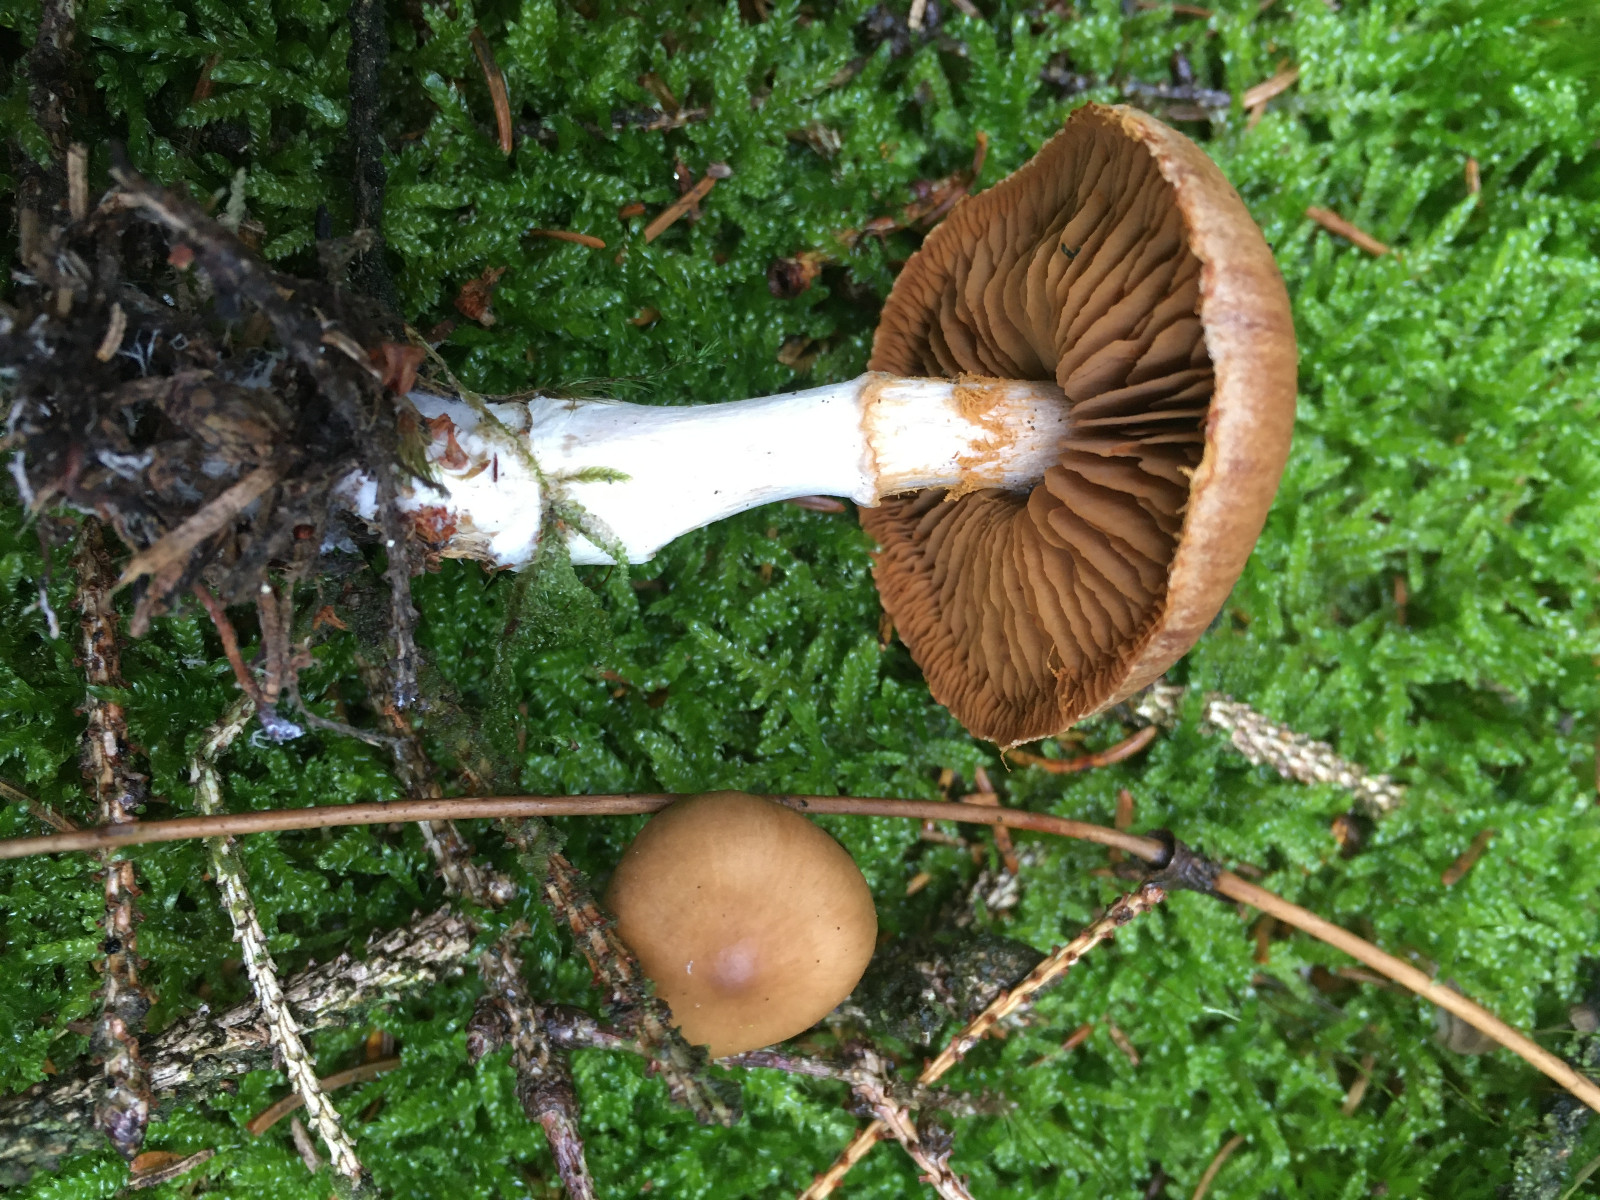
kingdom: Fungi
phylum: Basidiomycota
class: Agaricomycetes
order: Agaricales
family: Cortinariaceae
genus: Cortinarius
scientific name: Cortinarius kauffmanianus
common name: plantage-slørhat
